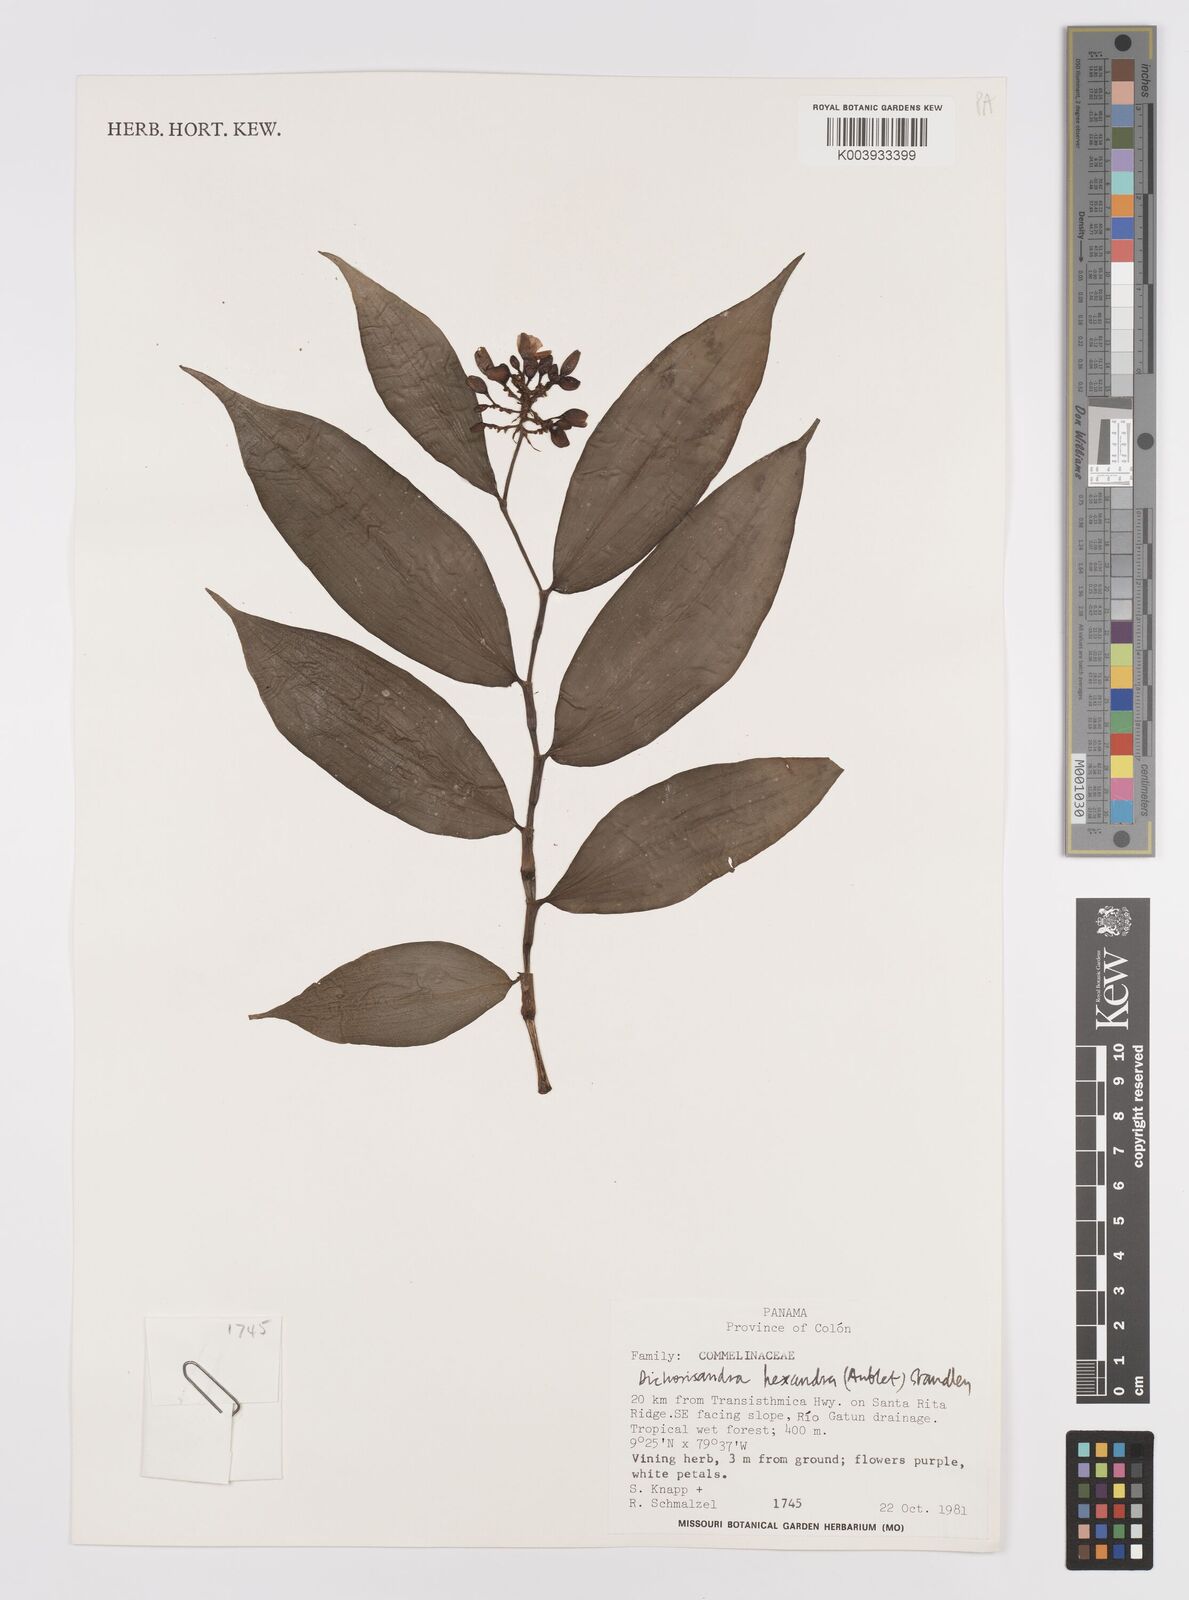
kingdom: Plantae
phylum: Tracheophyta
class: Liliopsida
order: Commelinales
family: Commelinaceae
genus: Dichorisandra
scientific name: Dichorisandra hexandra
